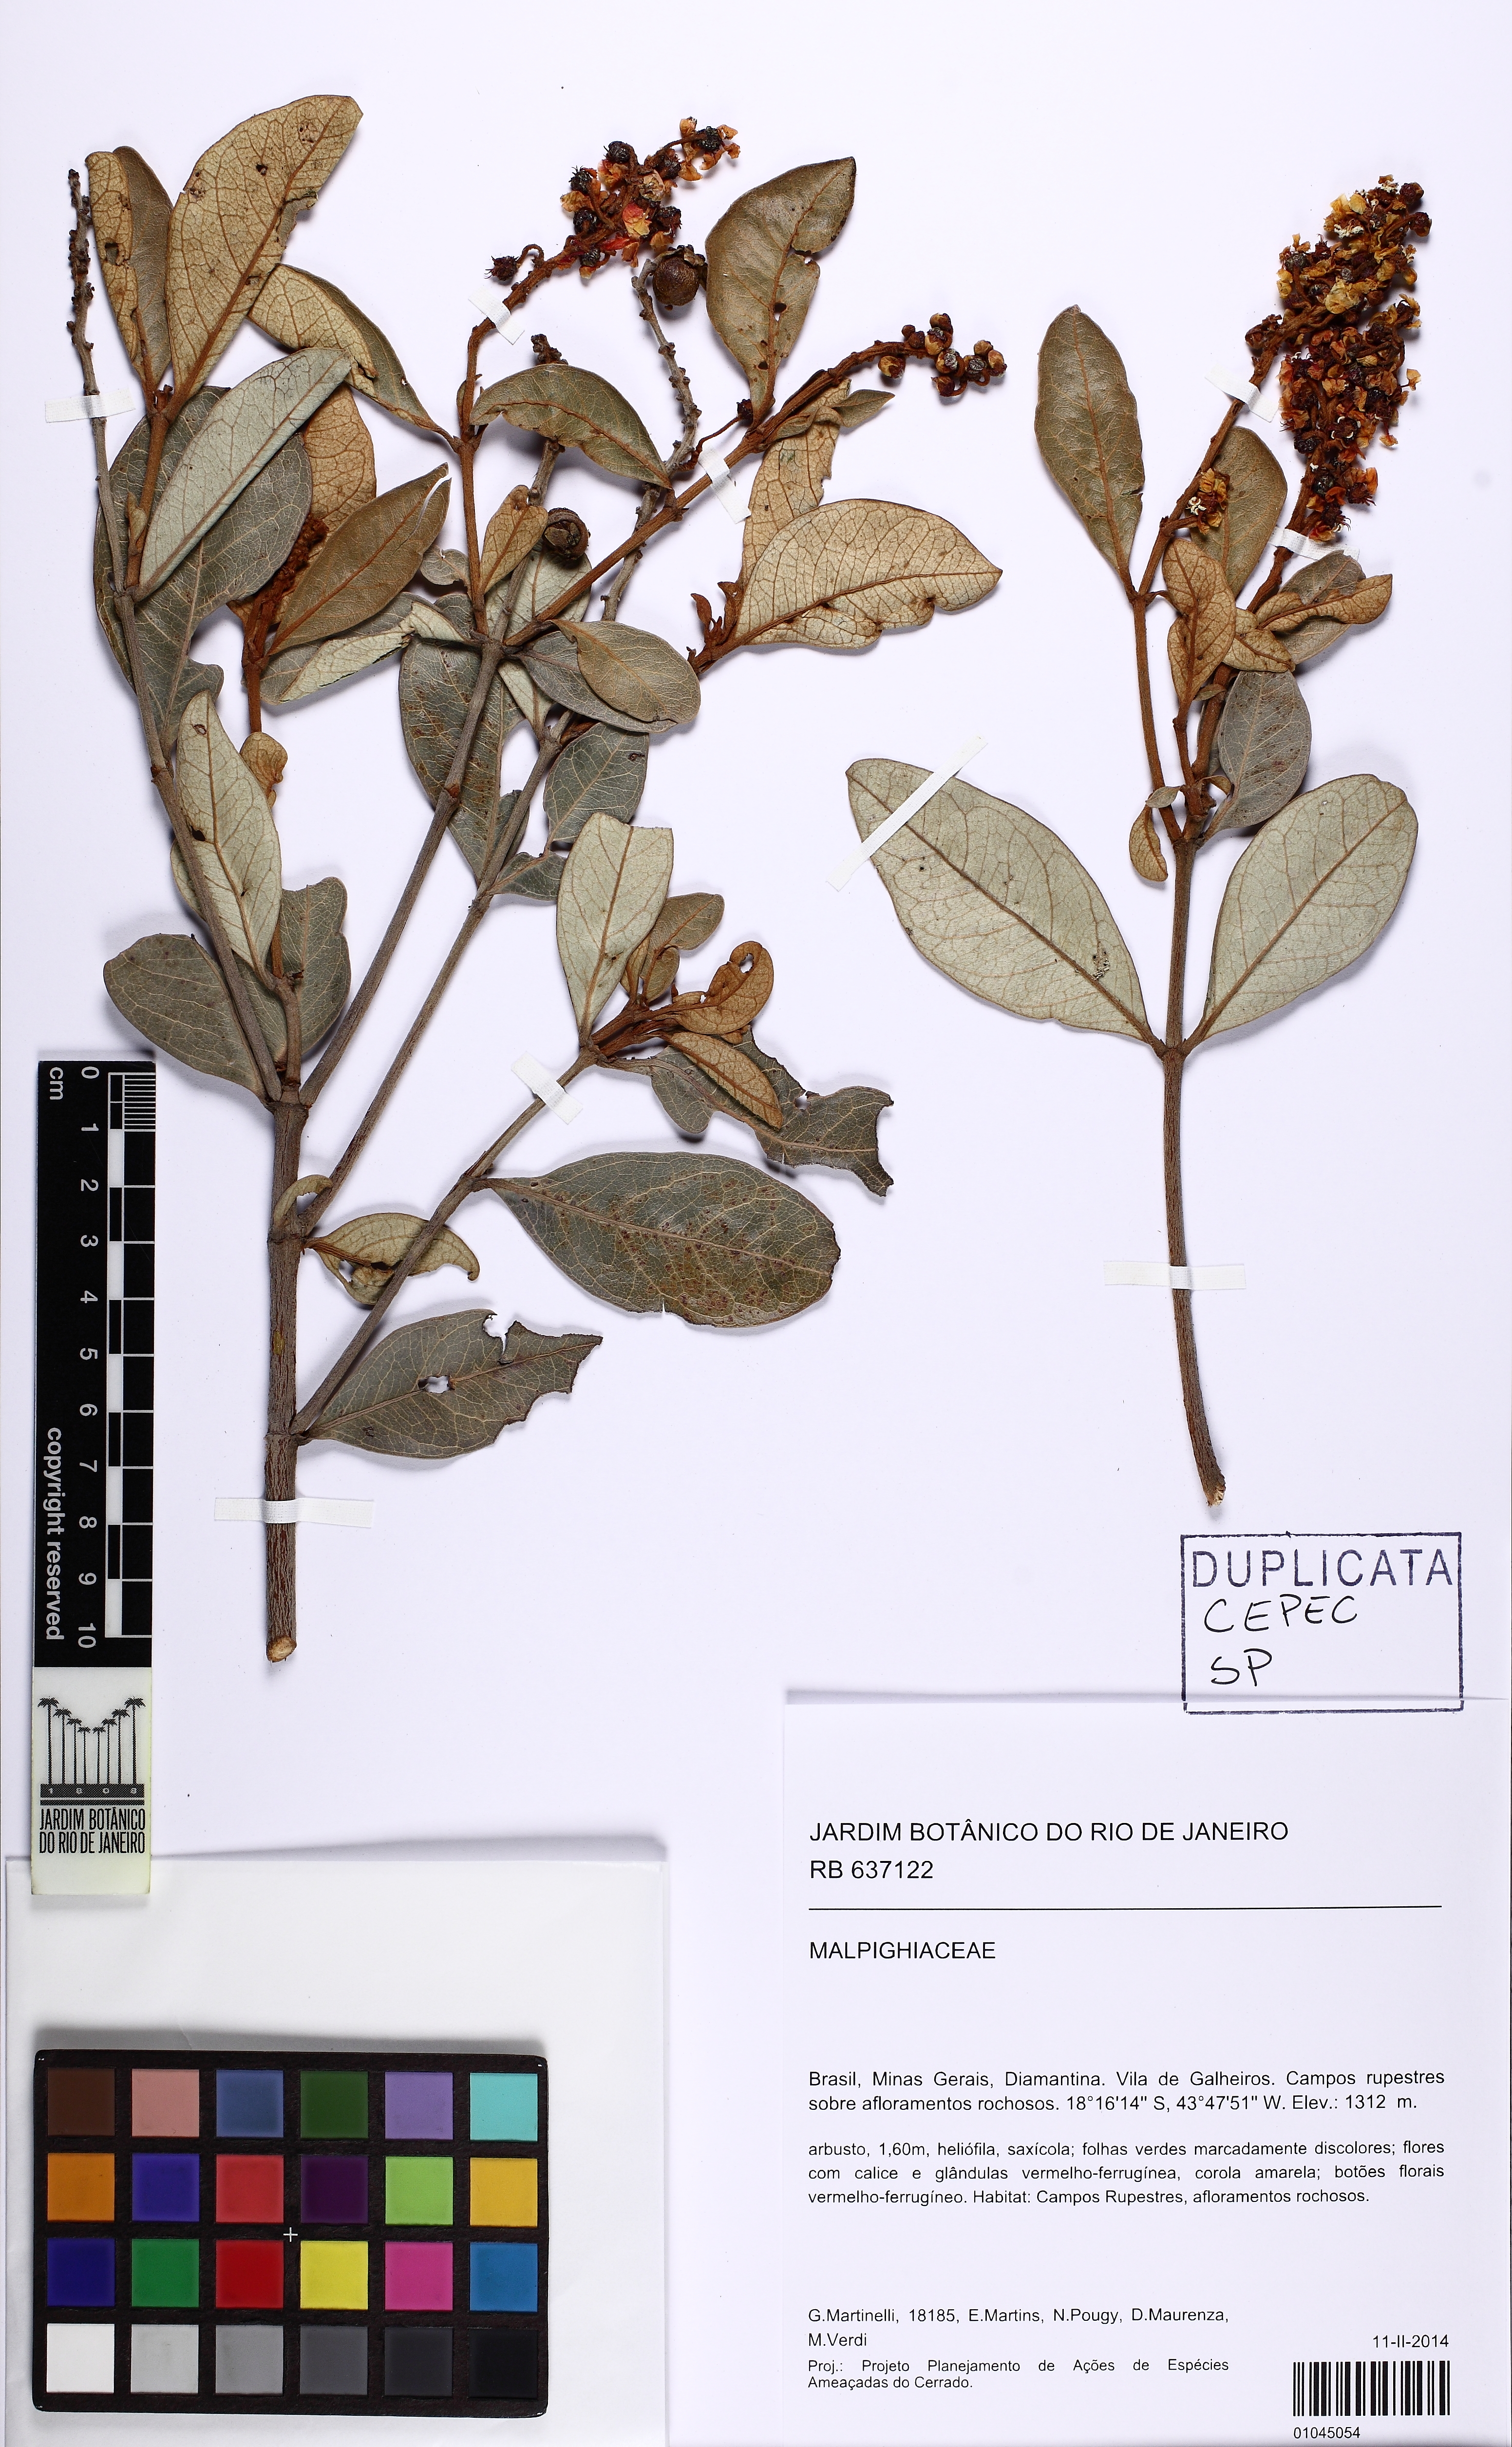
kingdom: Plantae
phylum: Tracheophyta
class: Magnoliopsida
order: Malpighiales
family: Malpighiaceae
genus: Byrsonima
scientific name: Byrsonima
